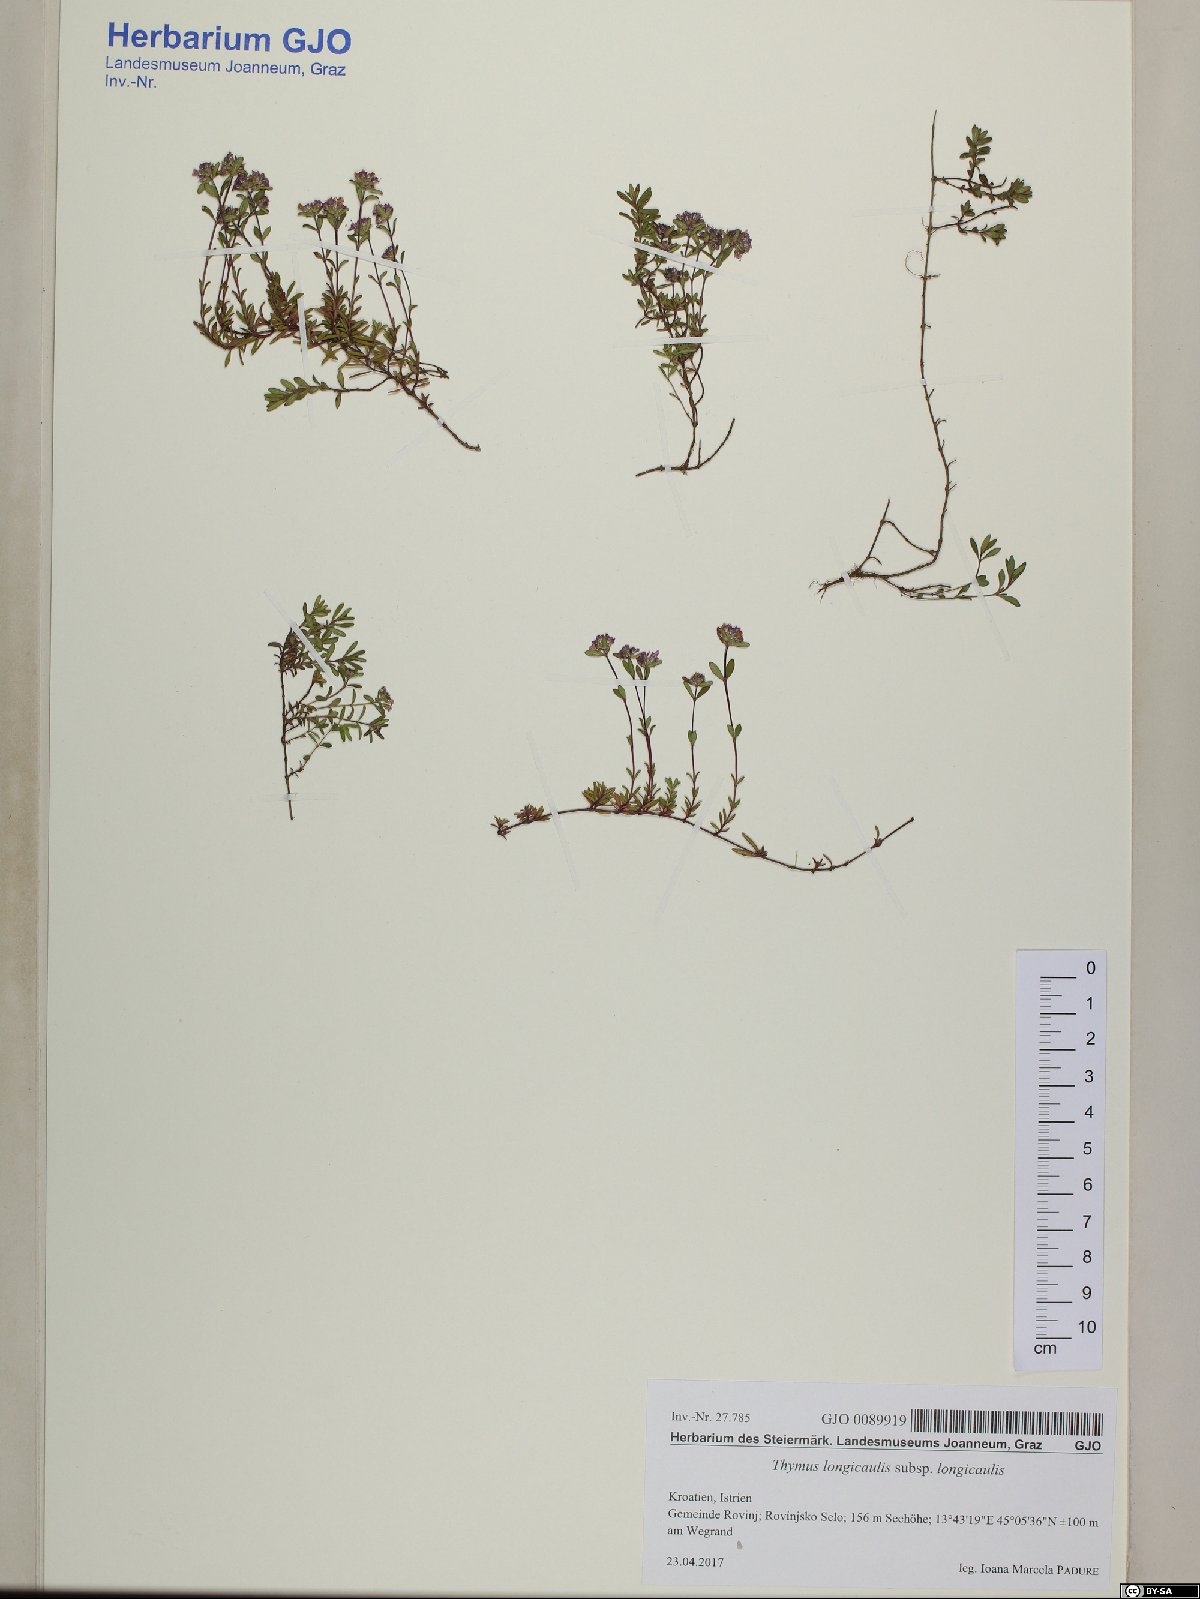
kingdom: Plantae
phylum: Tracheophyta
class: Magnoliopsida
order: Lamiales
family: Lamiaceae
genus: Thymus
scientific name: Thymus longicaulis
